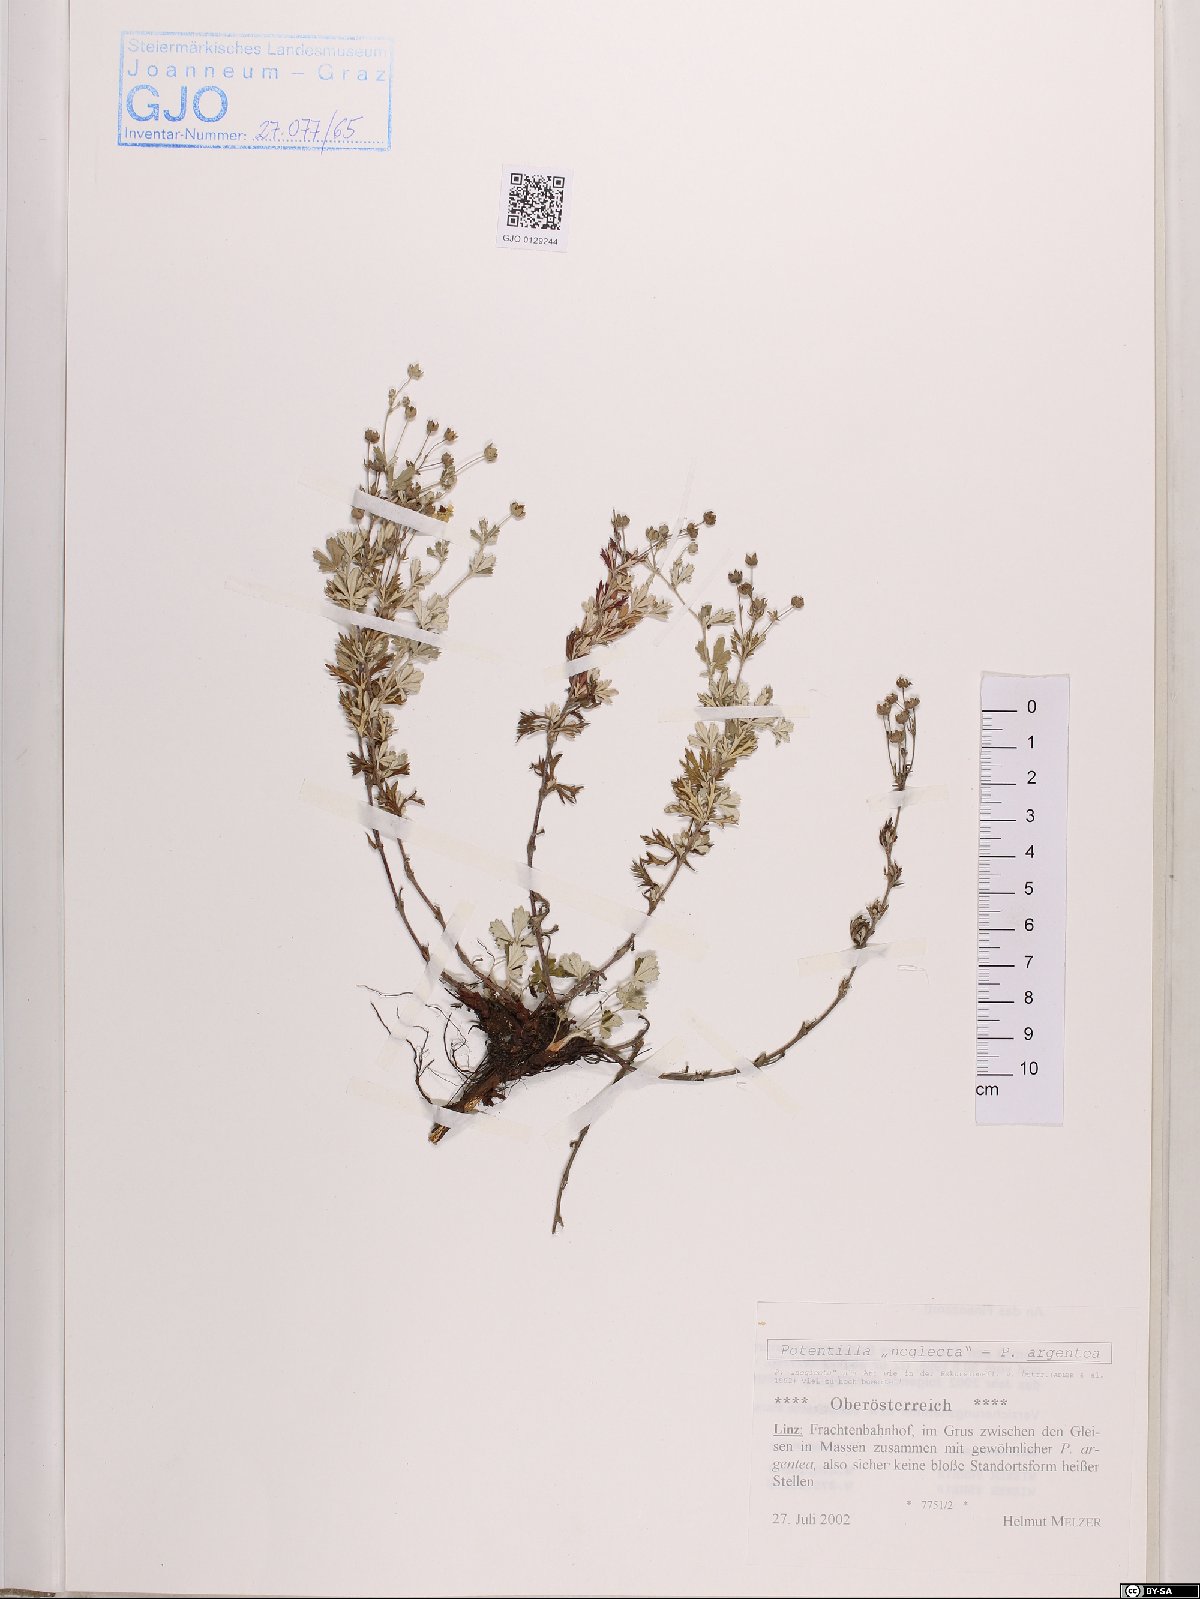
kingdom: Plantae
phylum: Tracheophyta
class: Magnoliopsida
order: Rosales
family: Rosaceae
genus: Potentilla
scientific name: Potentilla argentea
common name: Hoary cinquefoil
